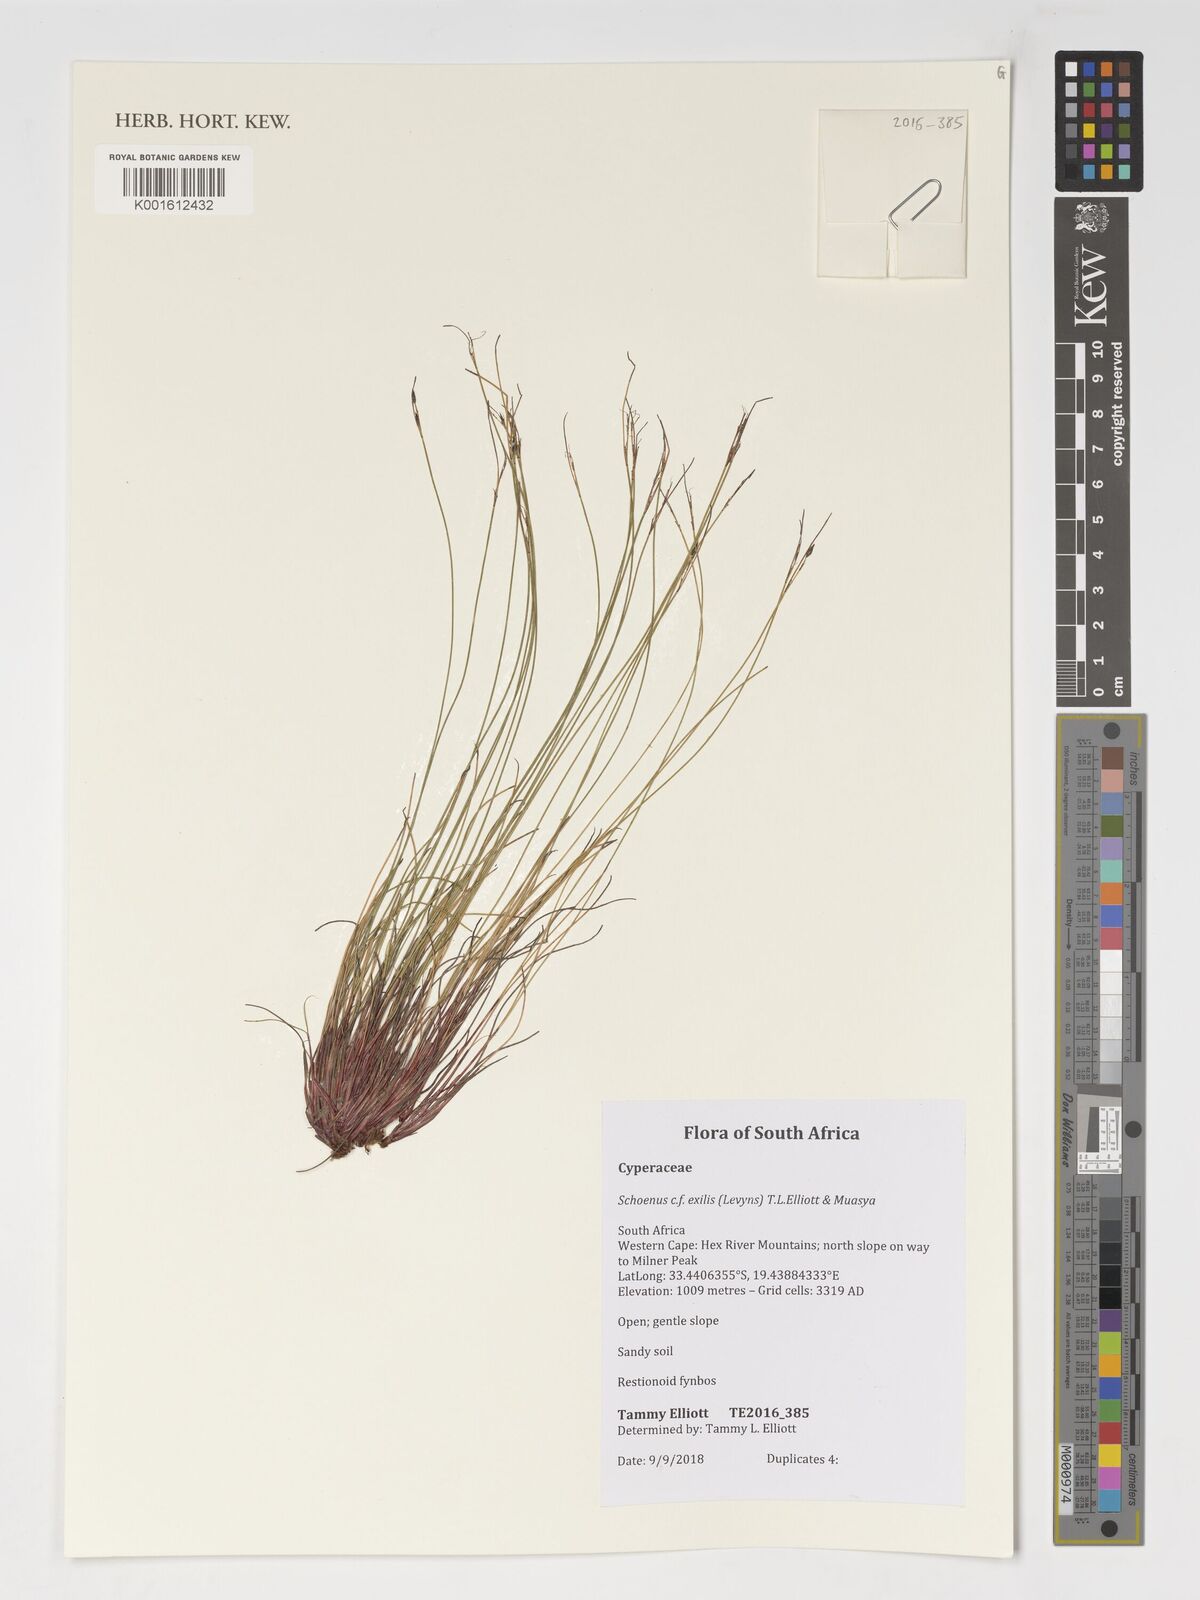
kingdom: Plantae
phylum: Tracheophyta
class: Liliopsida
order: Poales
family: Cyperaceae
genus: Schoenus
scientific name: Schoenus exilis
